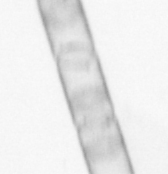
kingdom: Chromista
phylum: Ochrophyta
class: Bacillariophyceae
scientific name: Bacillariophyceae
